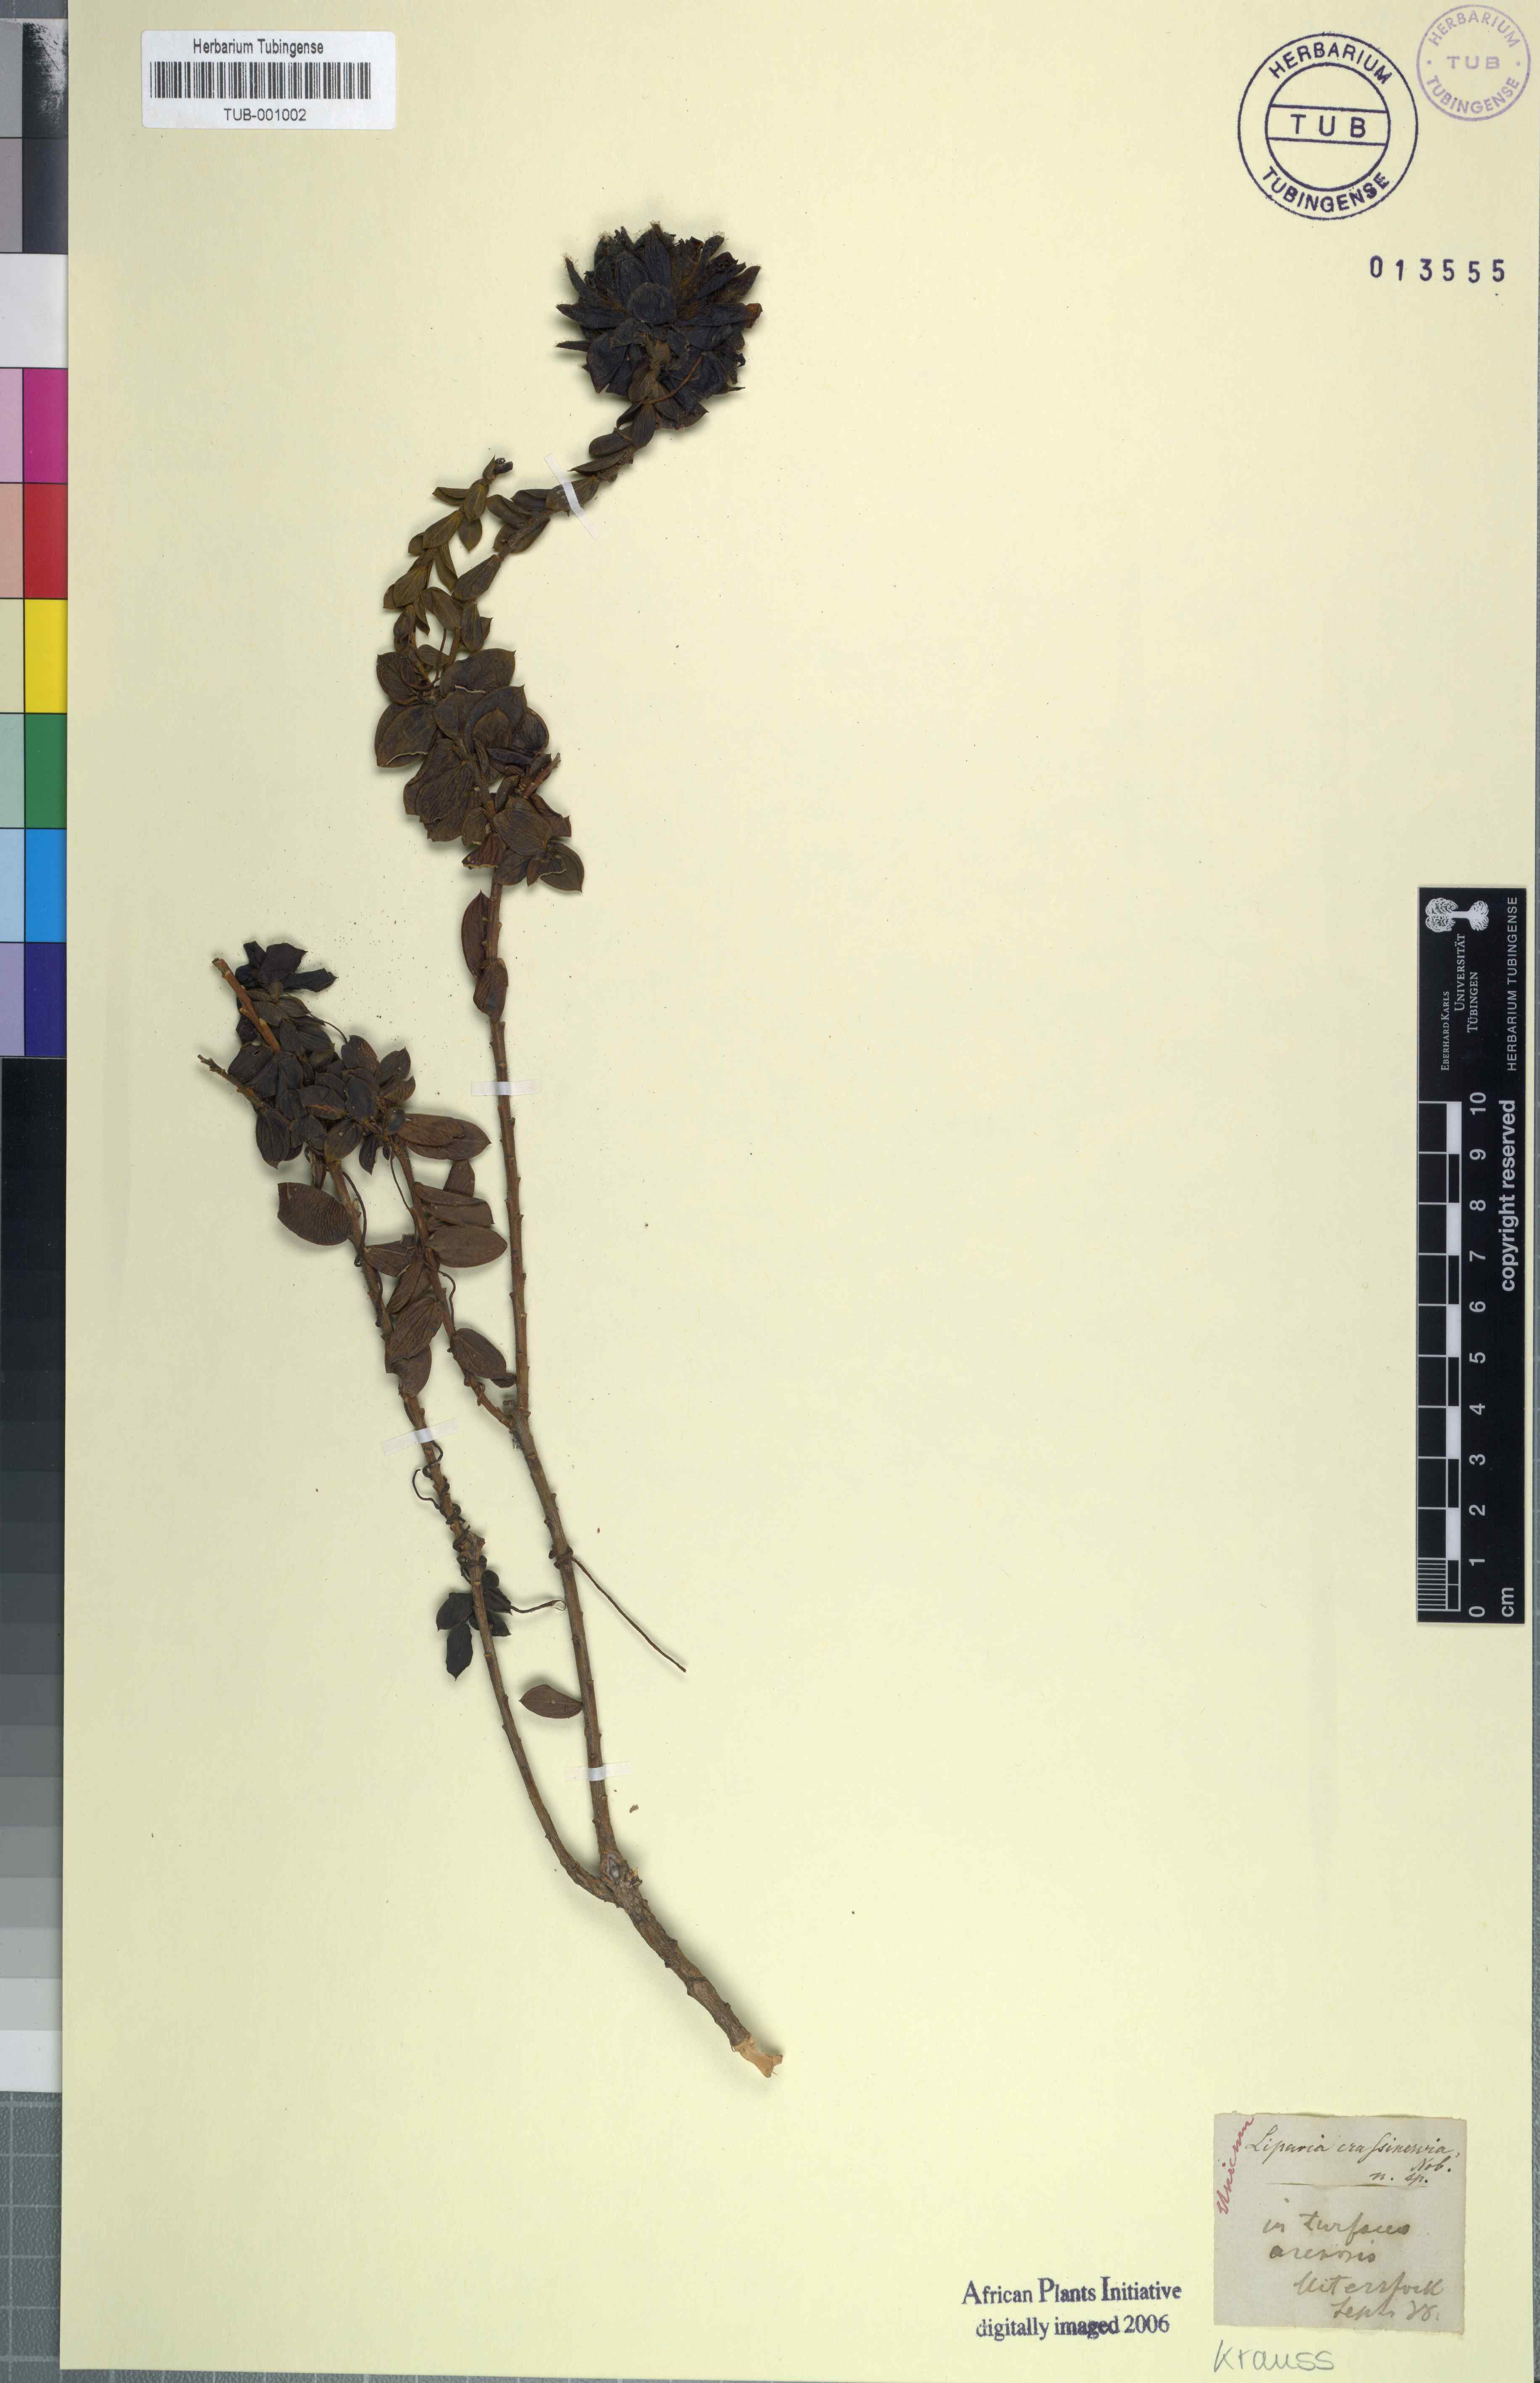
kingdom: Plantae
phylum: Tracheophyta
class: Magnoliopsida
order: Fabales
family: Fabaceae
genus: Liparia
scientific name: Liparia parva
